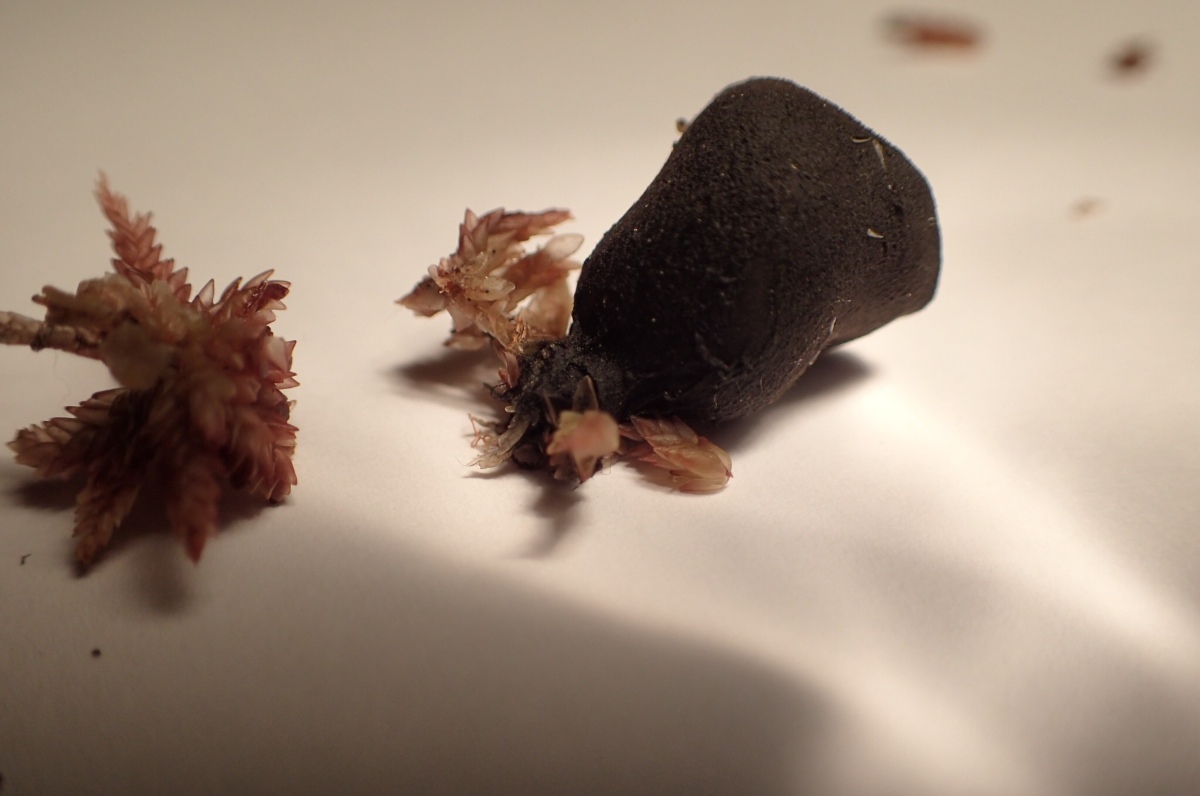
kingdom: Fungi
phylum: Ascomycota
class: Pezizomycetes
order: Pezizales
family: Sarcosomataceae
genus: Pseudoplectania
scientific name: Pseudoplectania episphagnum
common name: tørvemos-sortbæger
